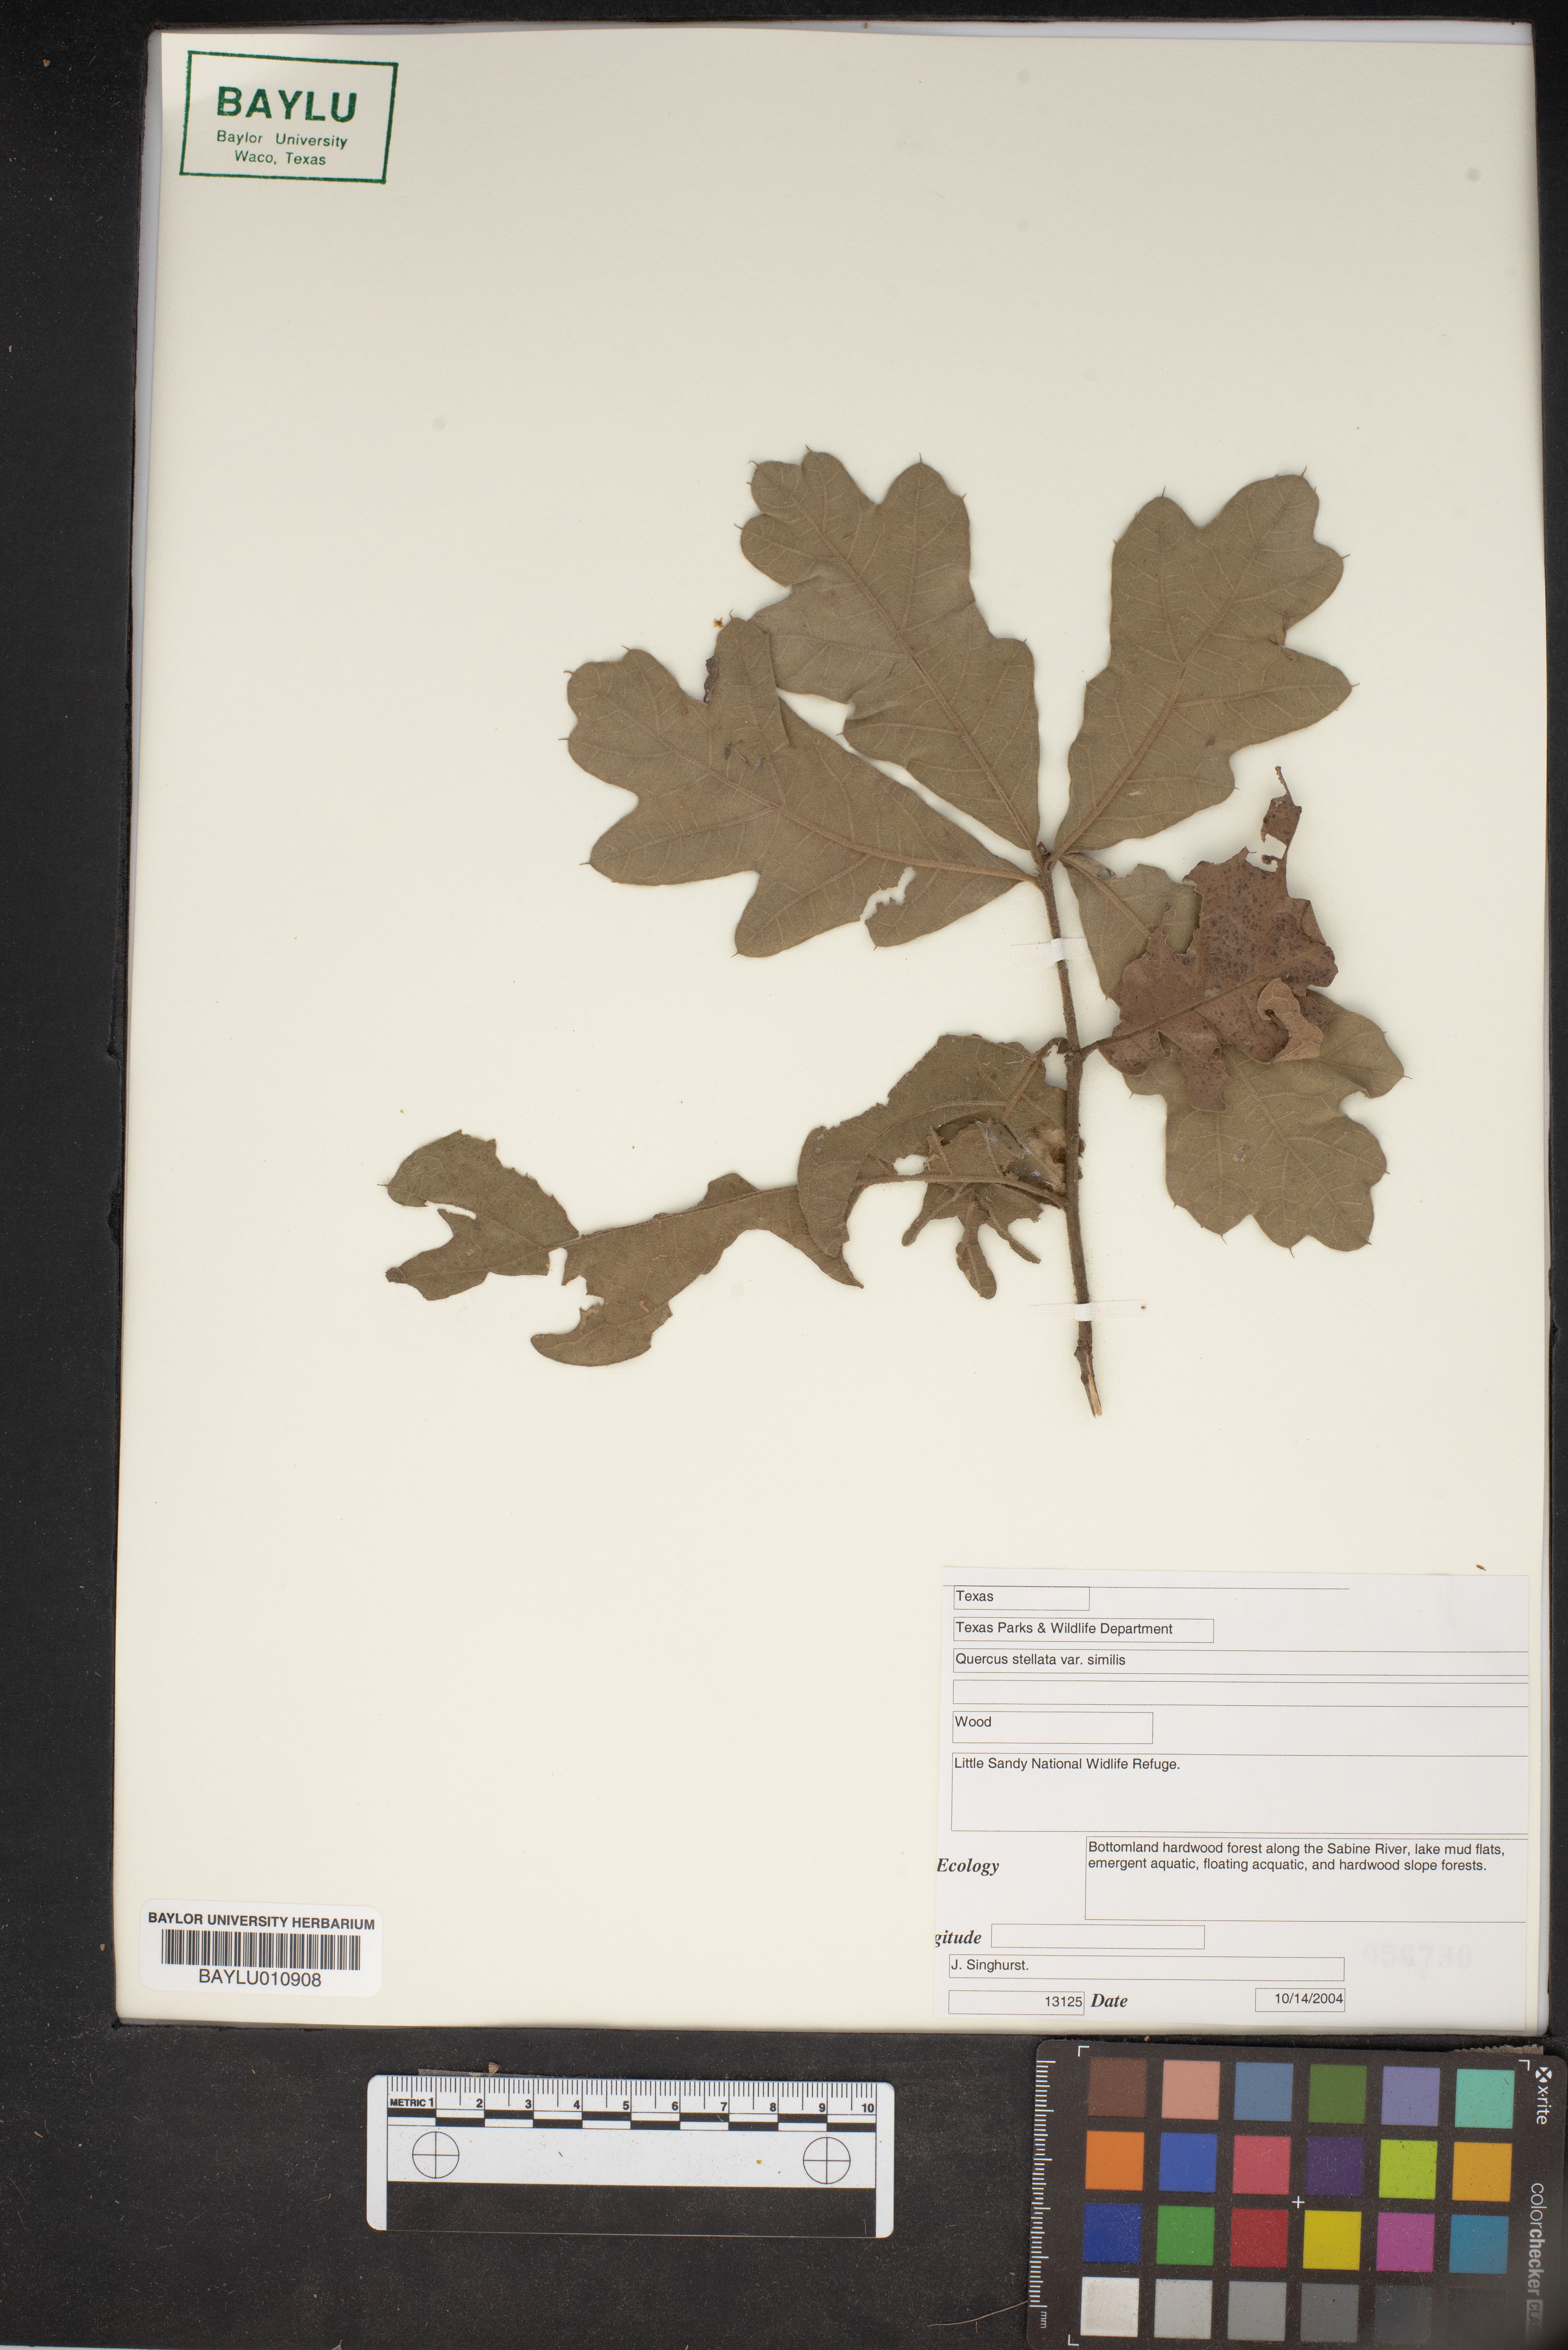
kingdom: Plantae
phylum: Tracheophyta
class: Magnoliopsida
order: Fagales
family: Fagaceae
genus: Quercus
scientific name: Quercus stellata
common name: Post oak
